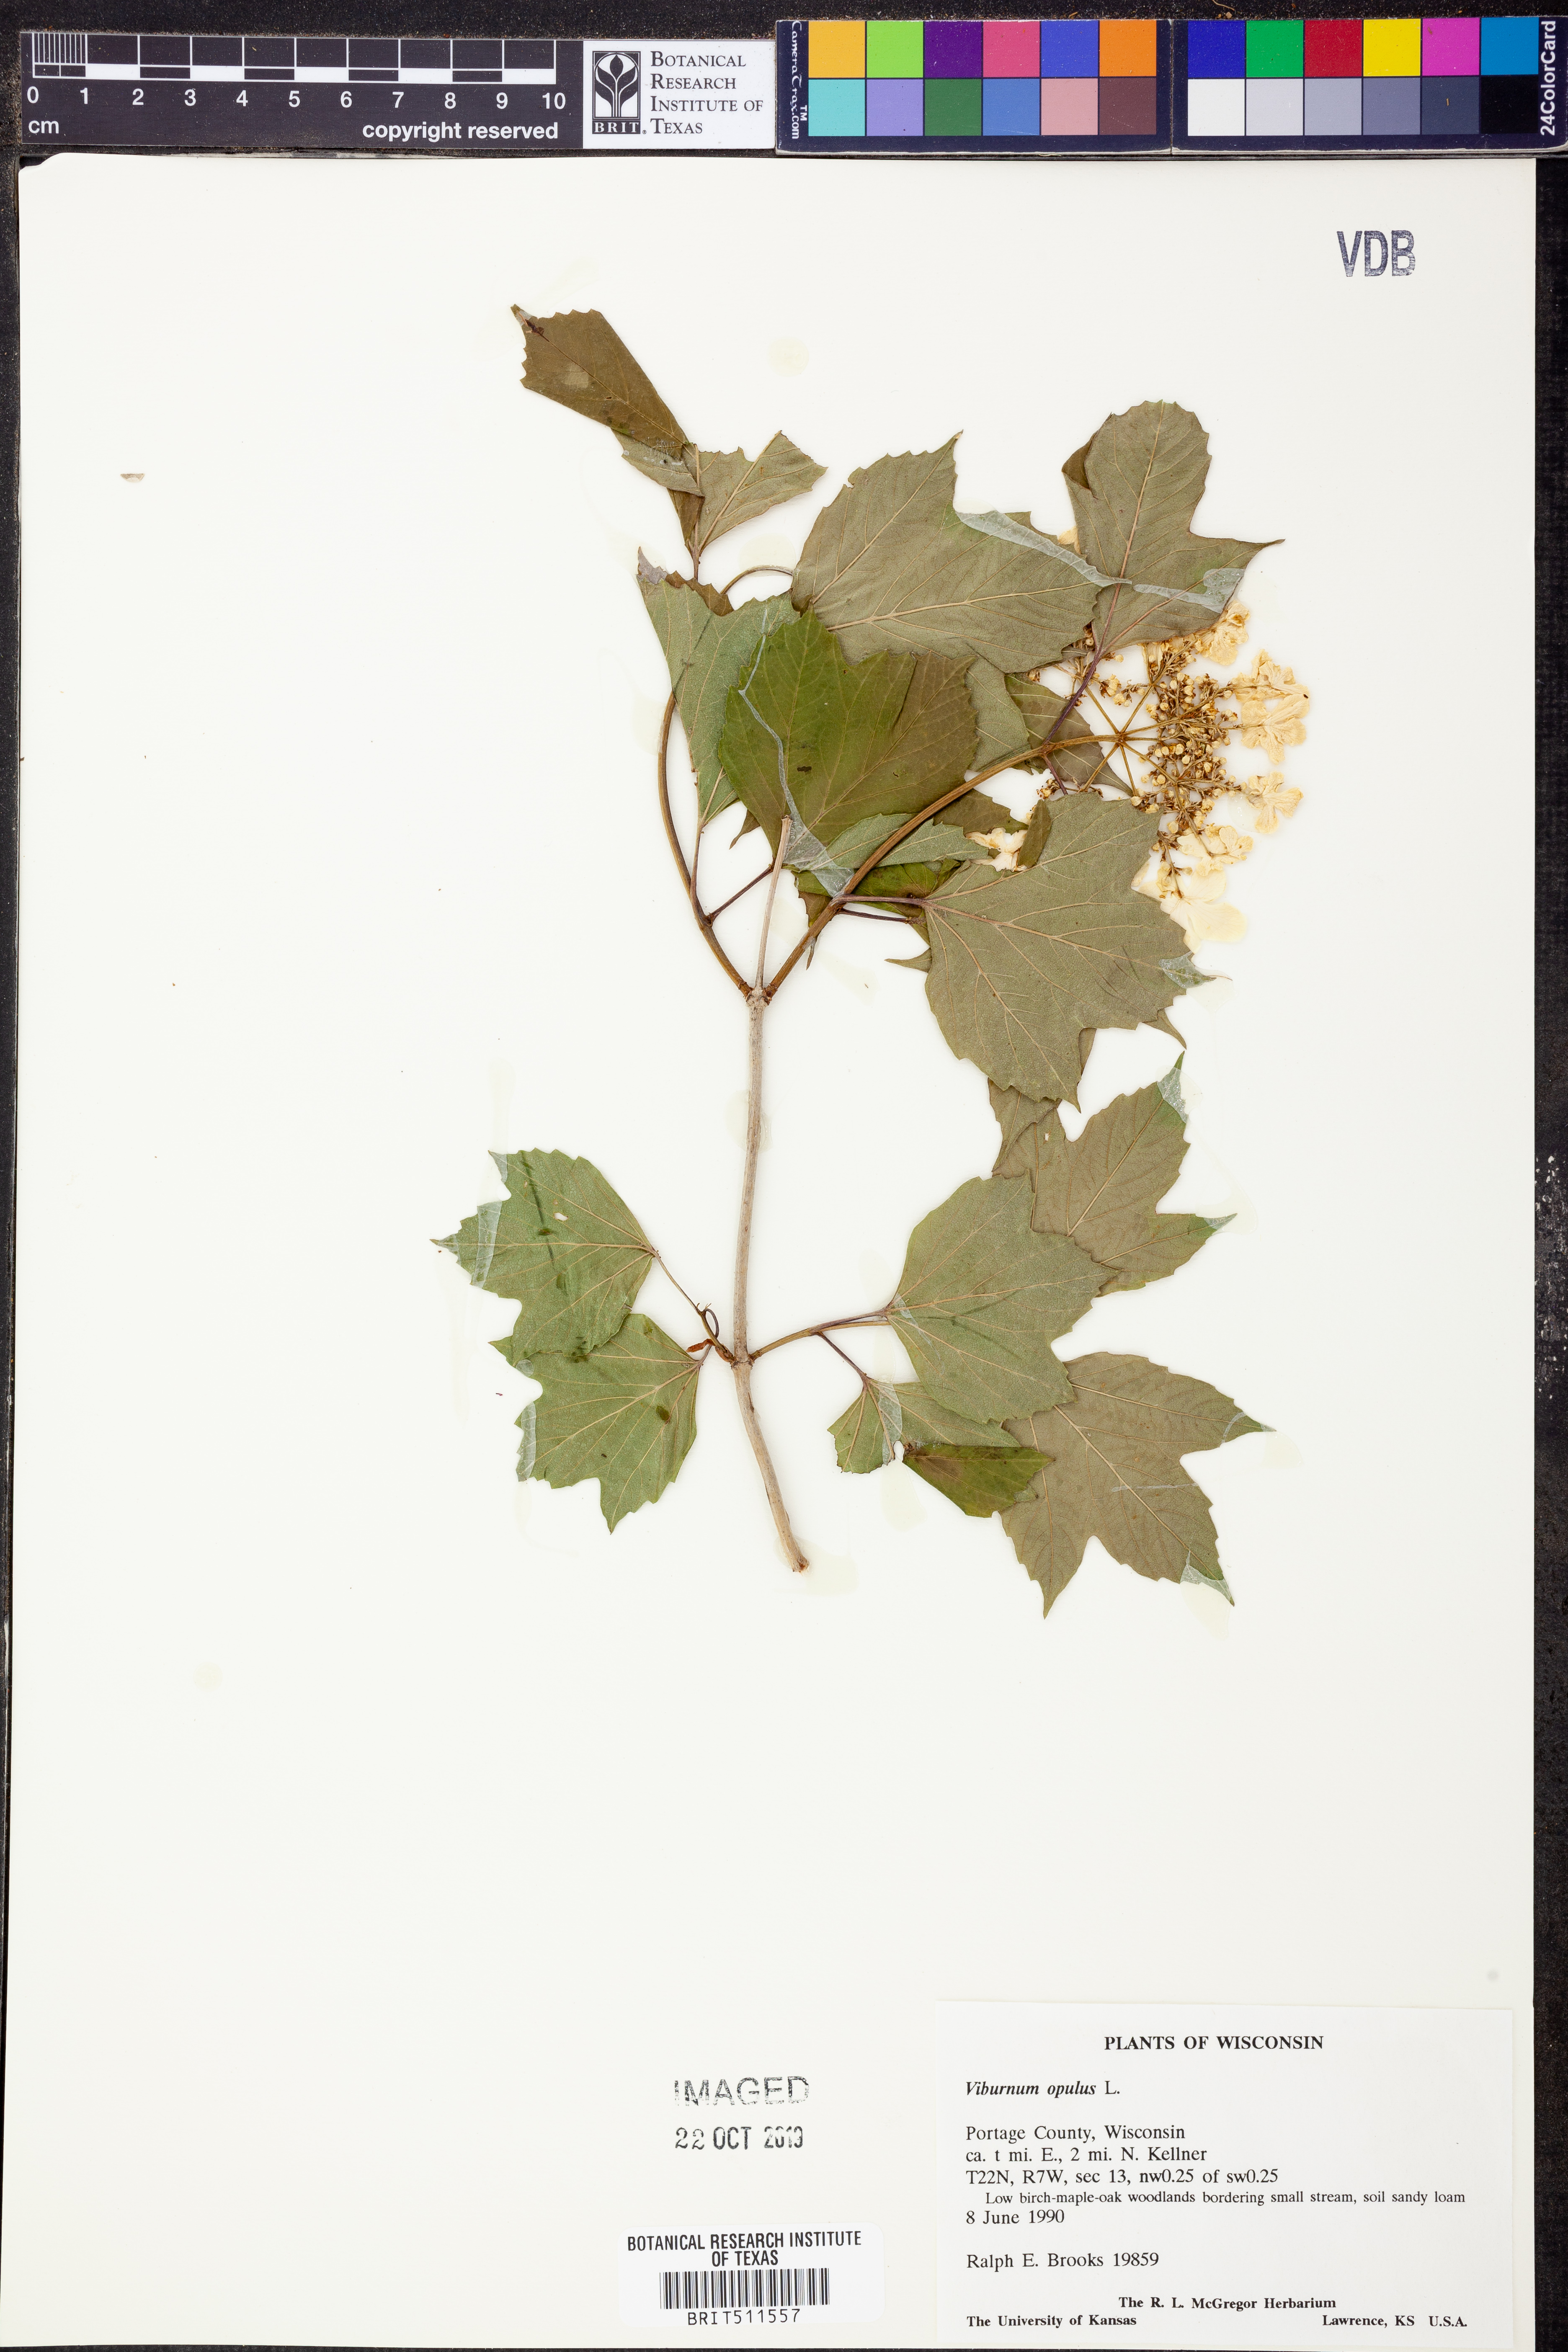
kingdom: Plantae
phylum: Tracheophyta
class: Magnoliopsida
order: Dipsacales
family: Viburnaceae
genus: Viburnum
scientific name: Viburnum opulus
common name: Guelder-rose
